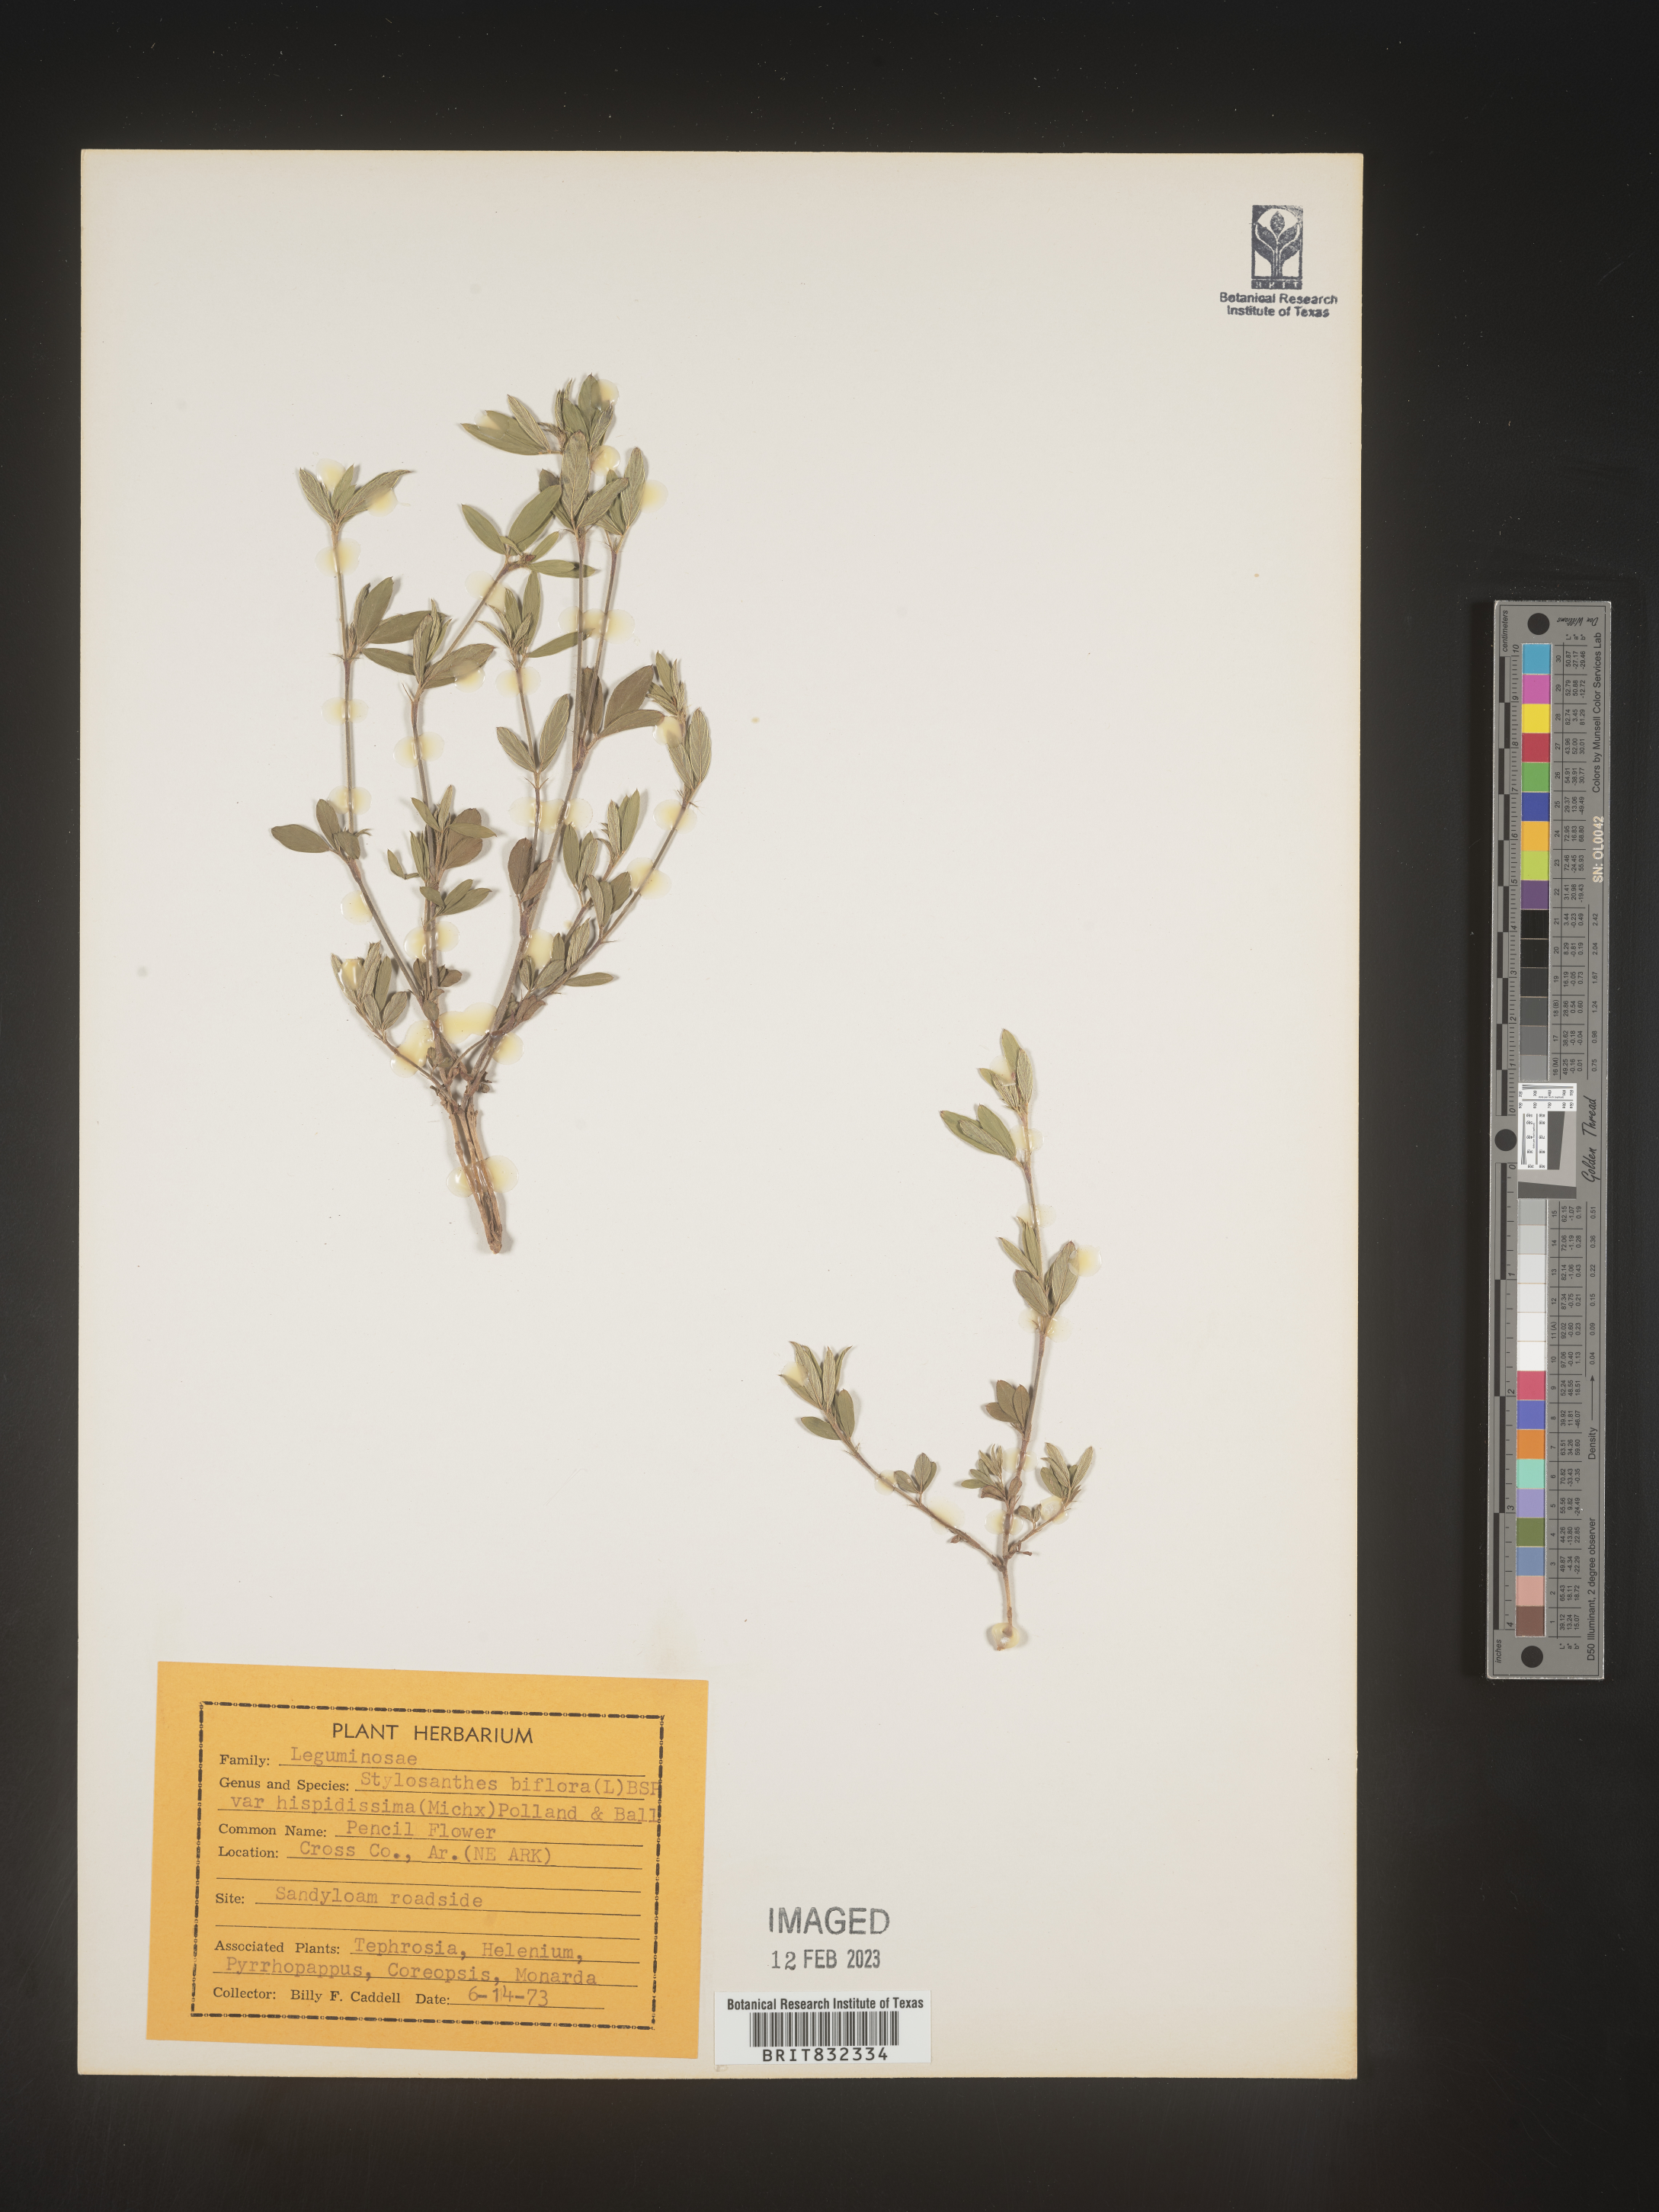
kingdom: Plantae
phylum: Tracheophyta
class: Magnoliopsida
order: Fabales
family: Fabaceae
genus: Stylosanthes
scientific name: Stylosanthes biflora
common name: Two-flower pencil-flower
